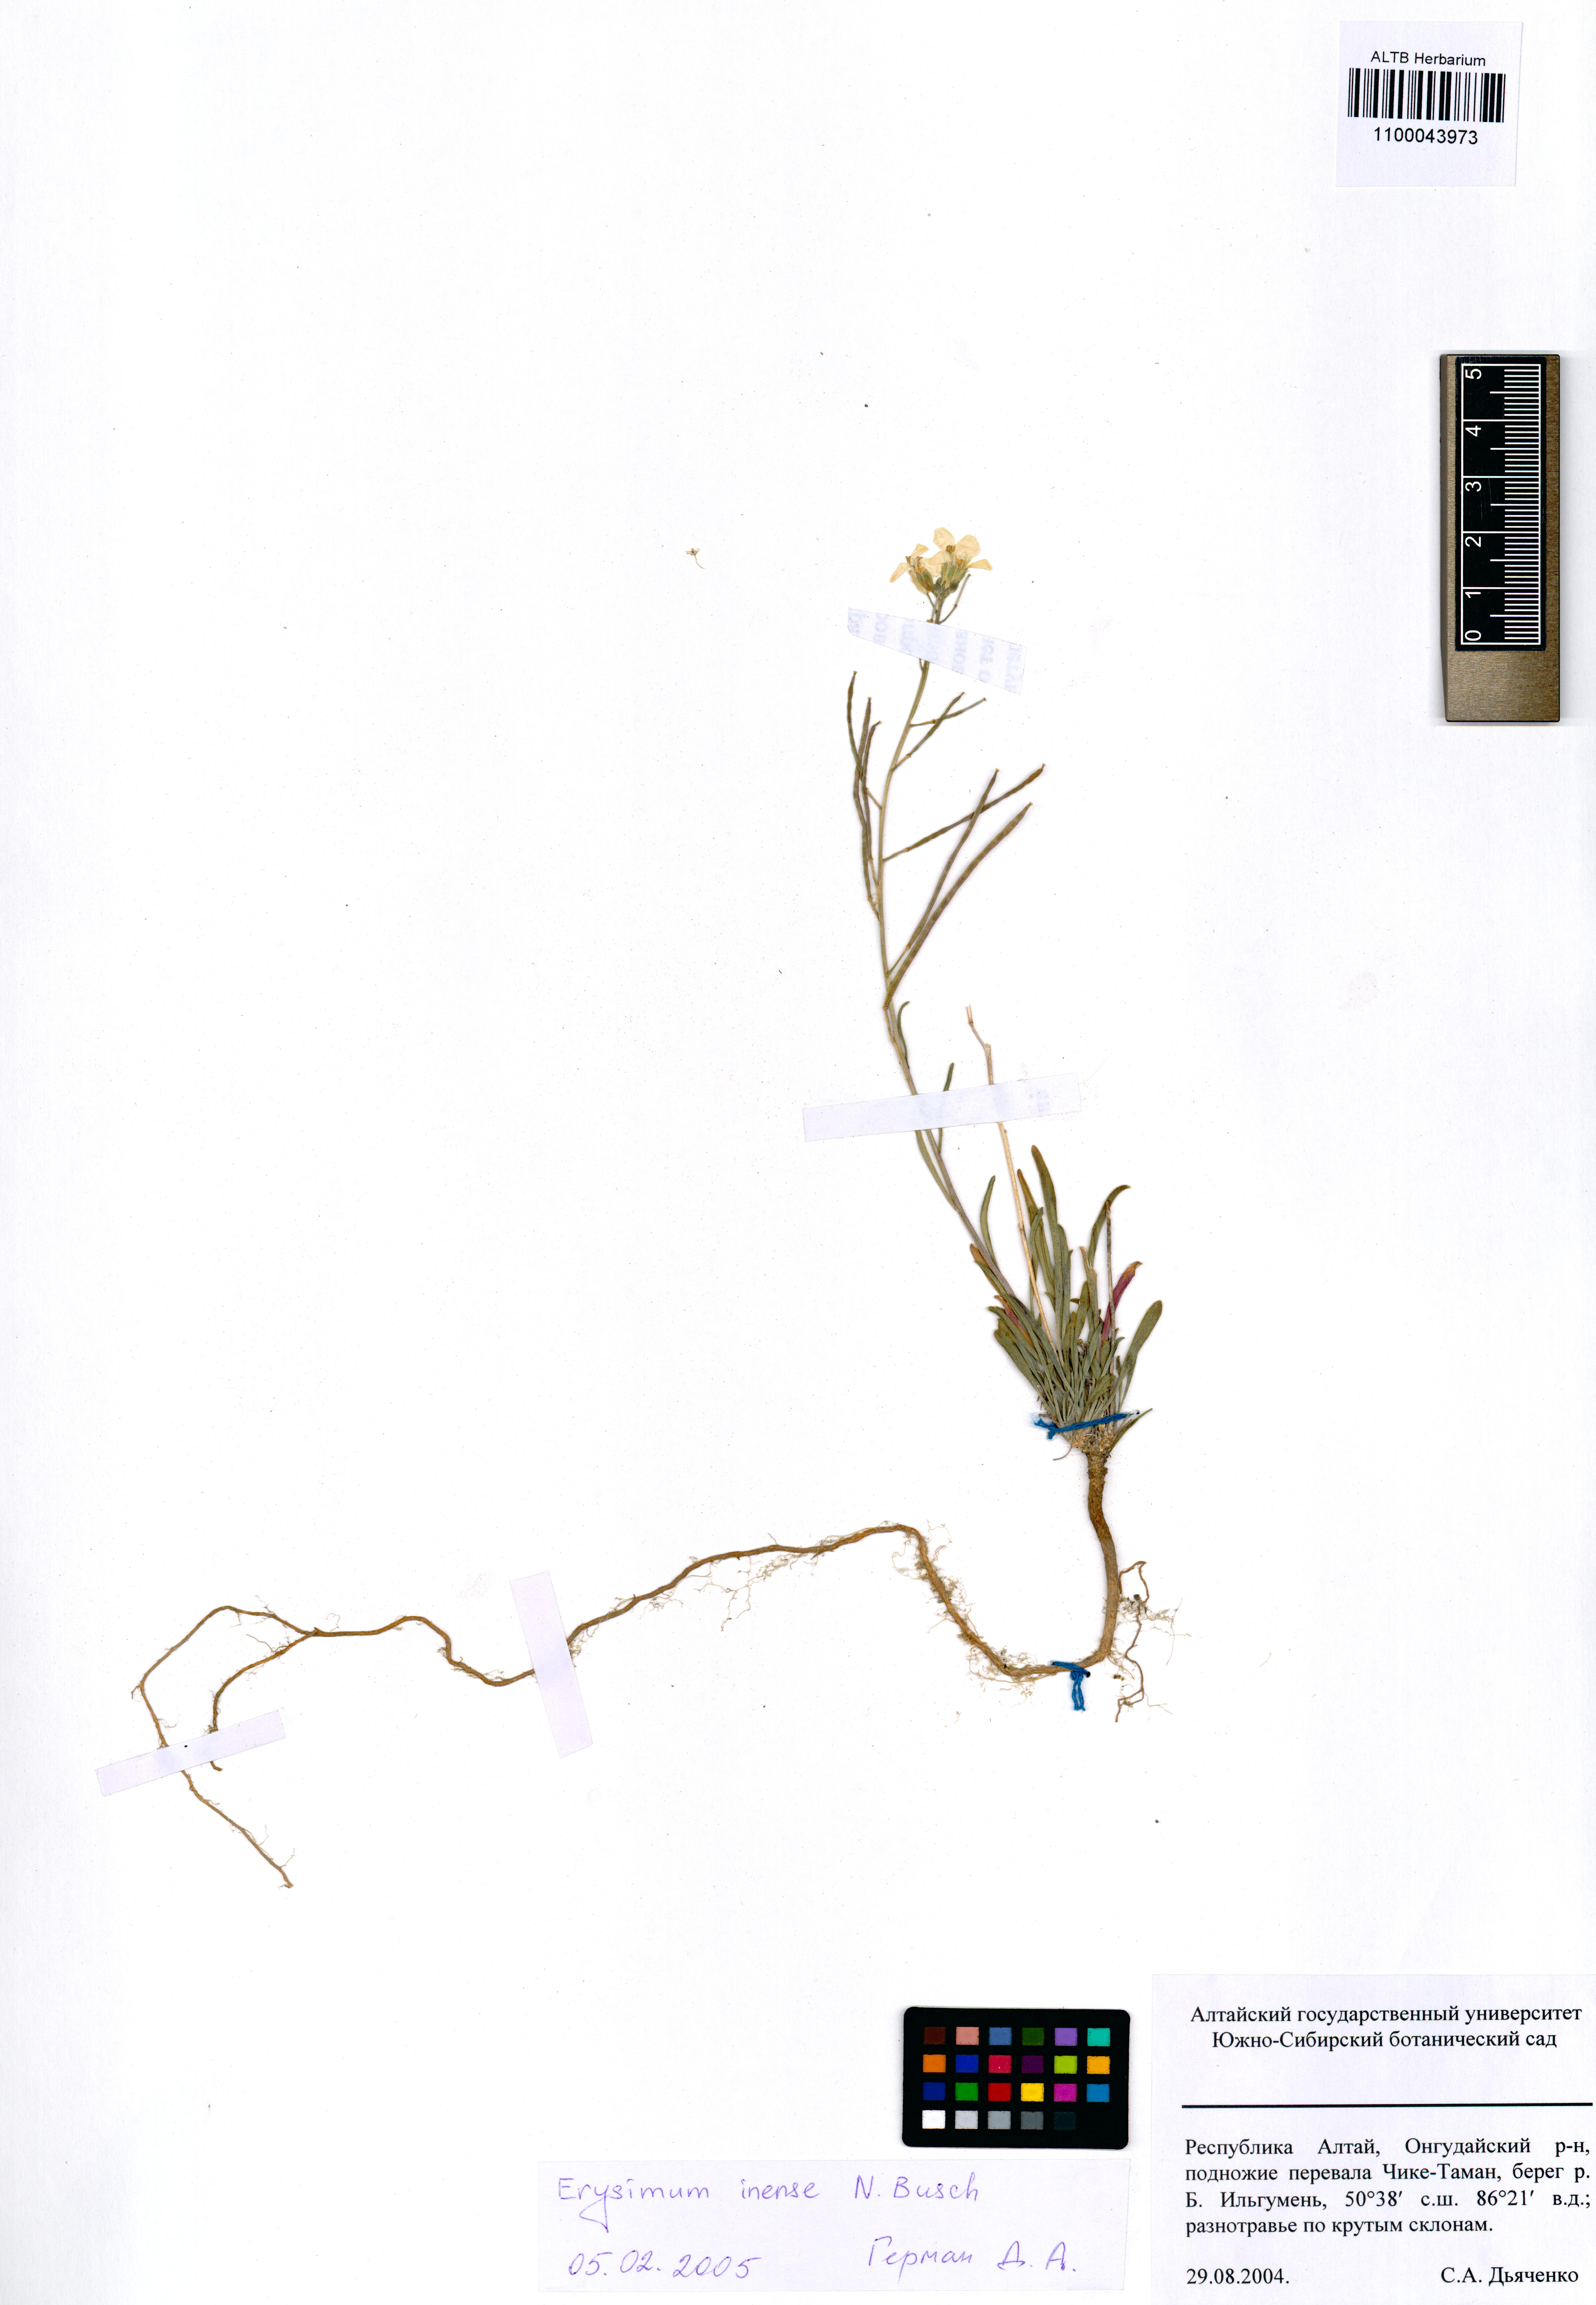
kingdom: Plantae
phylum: Tracheophyta
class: Magnoliopsida
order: Brassicales
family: Brassicaceae
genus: Erysimum
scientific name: Erysimum inense
